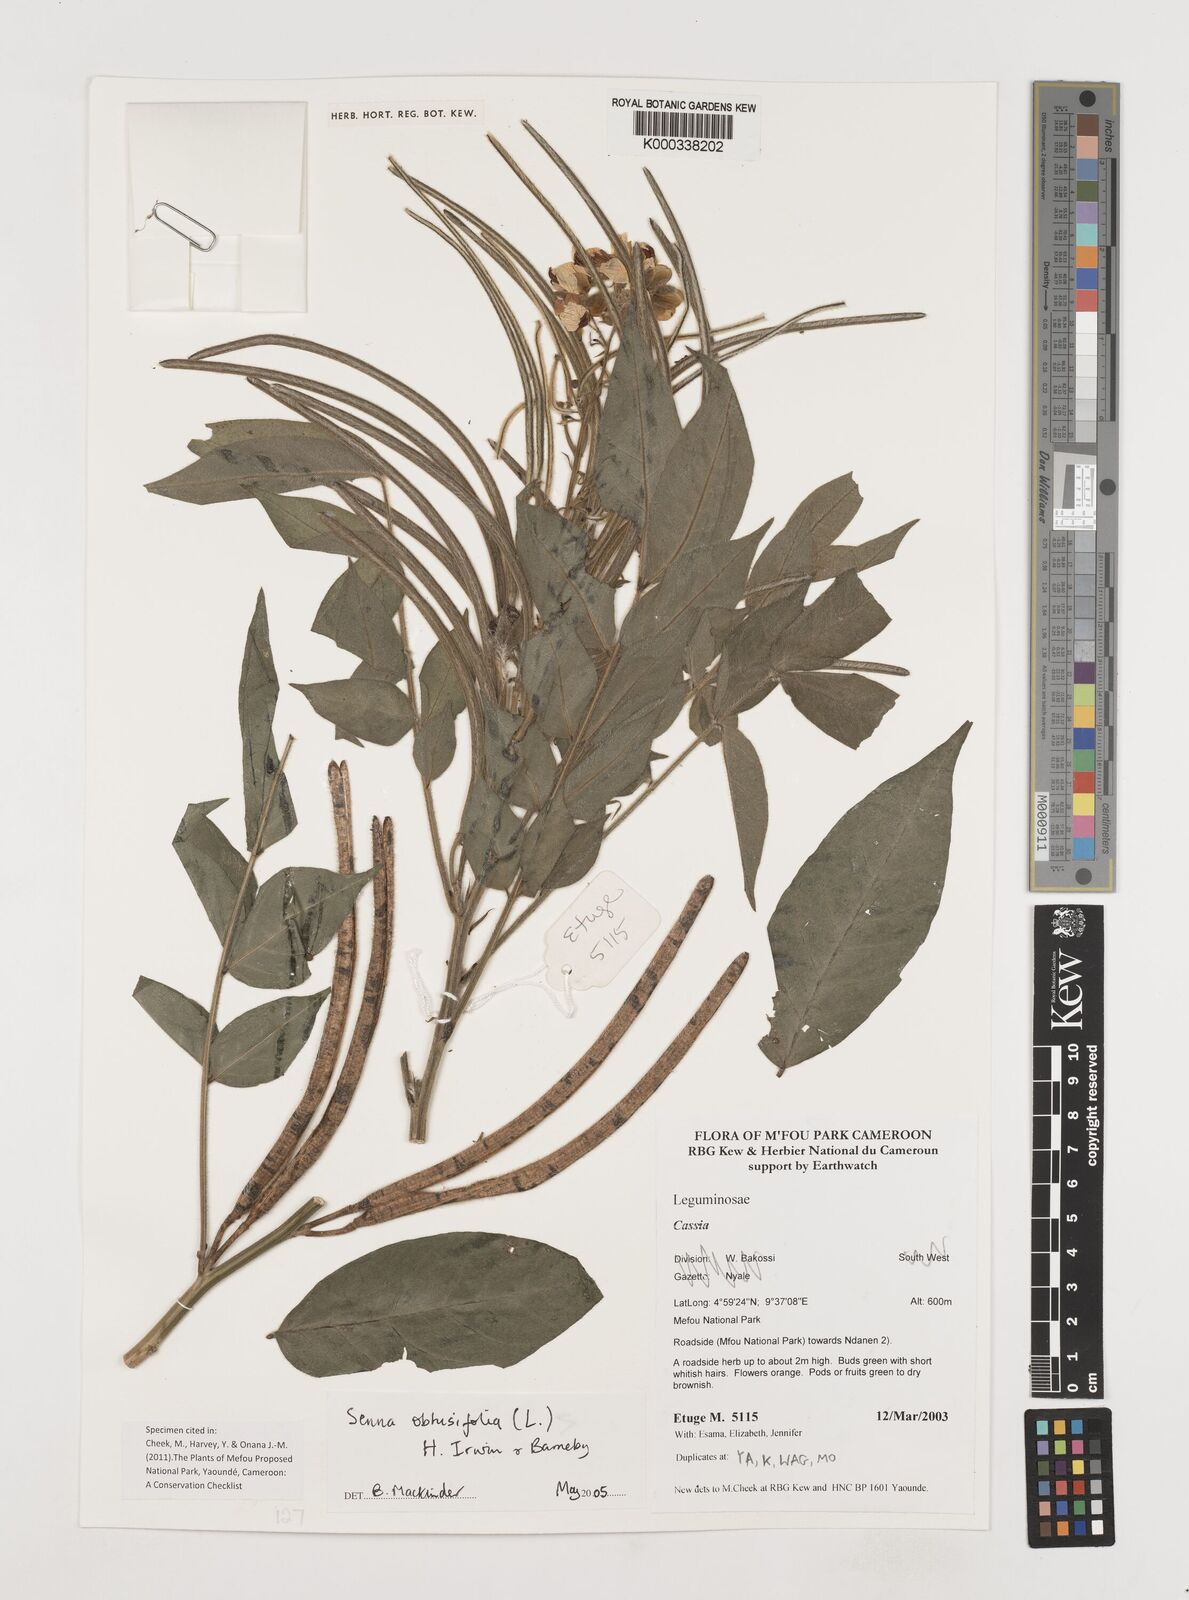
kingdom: Plantae
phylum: Tracheophyta
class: Magnoliopsida
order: Fabales
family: Fabaceae
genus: Senna
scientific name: Senna obtusifolia
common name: Java-bean
